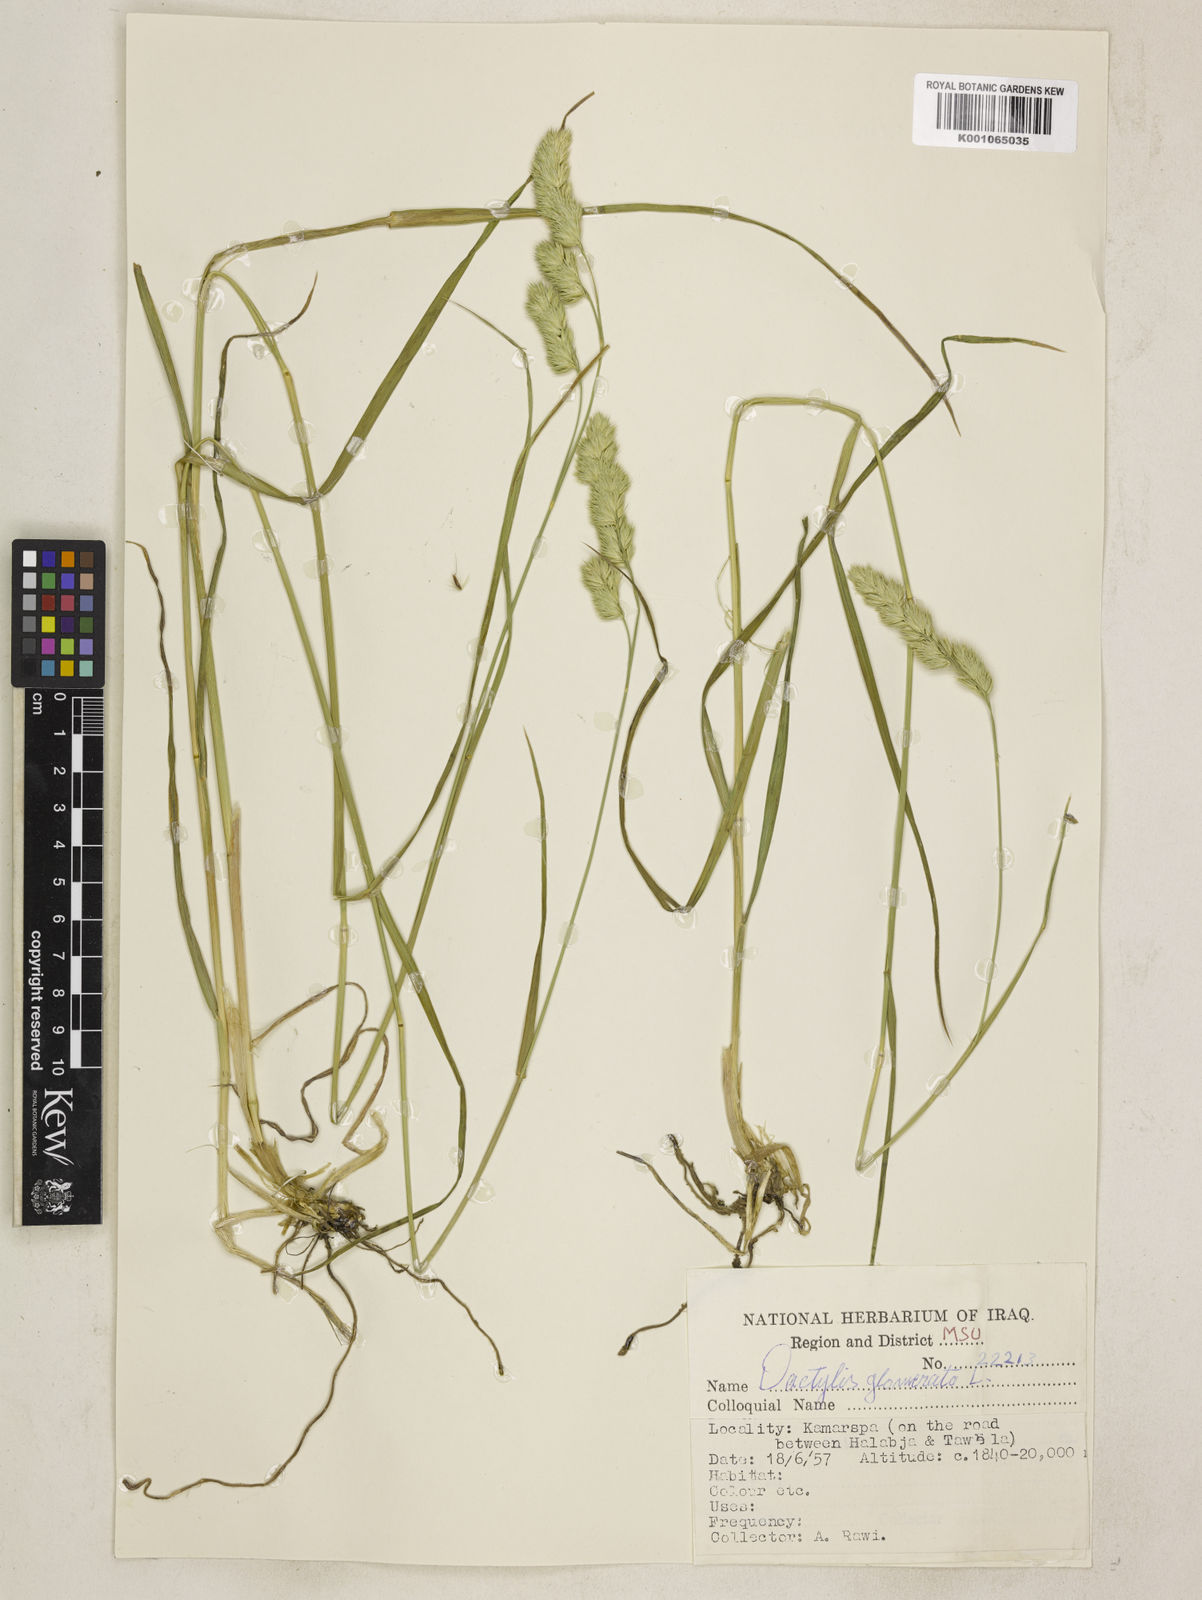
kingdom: Plantae
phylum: Tracheophyta
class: Liliopsida
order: Poales
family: Poaceae
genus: Dactylis
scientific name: Dactylis glomerata
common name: Orchardgrass
